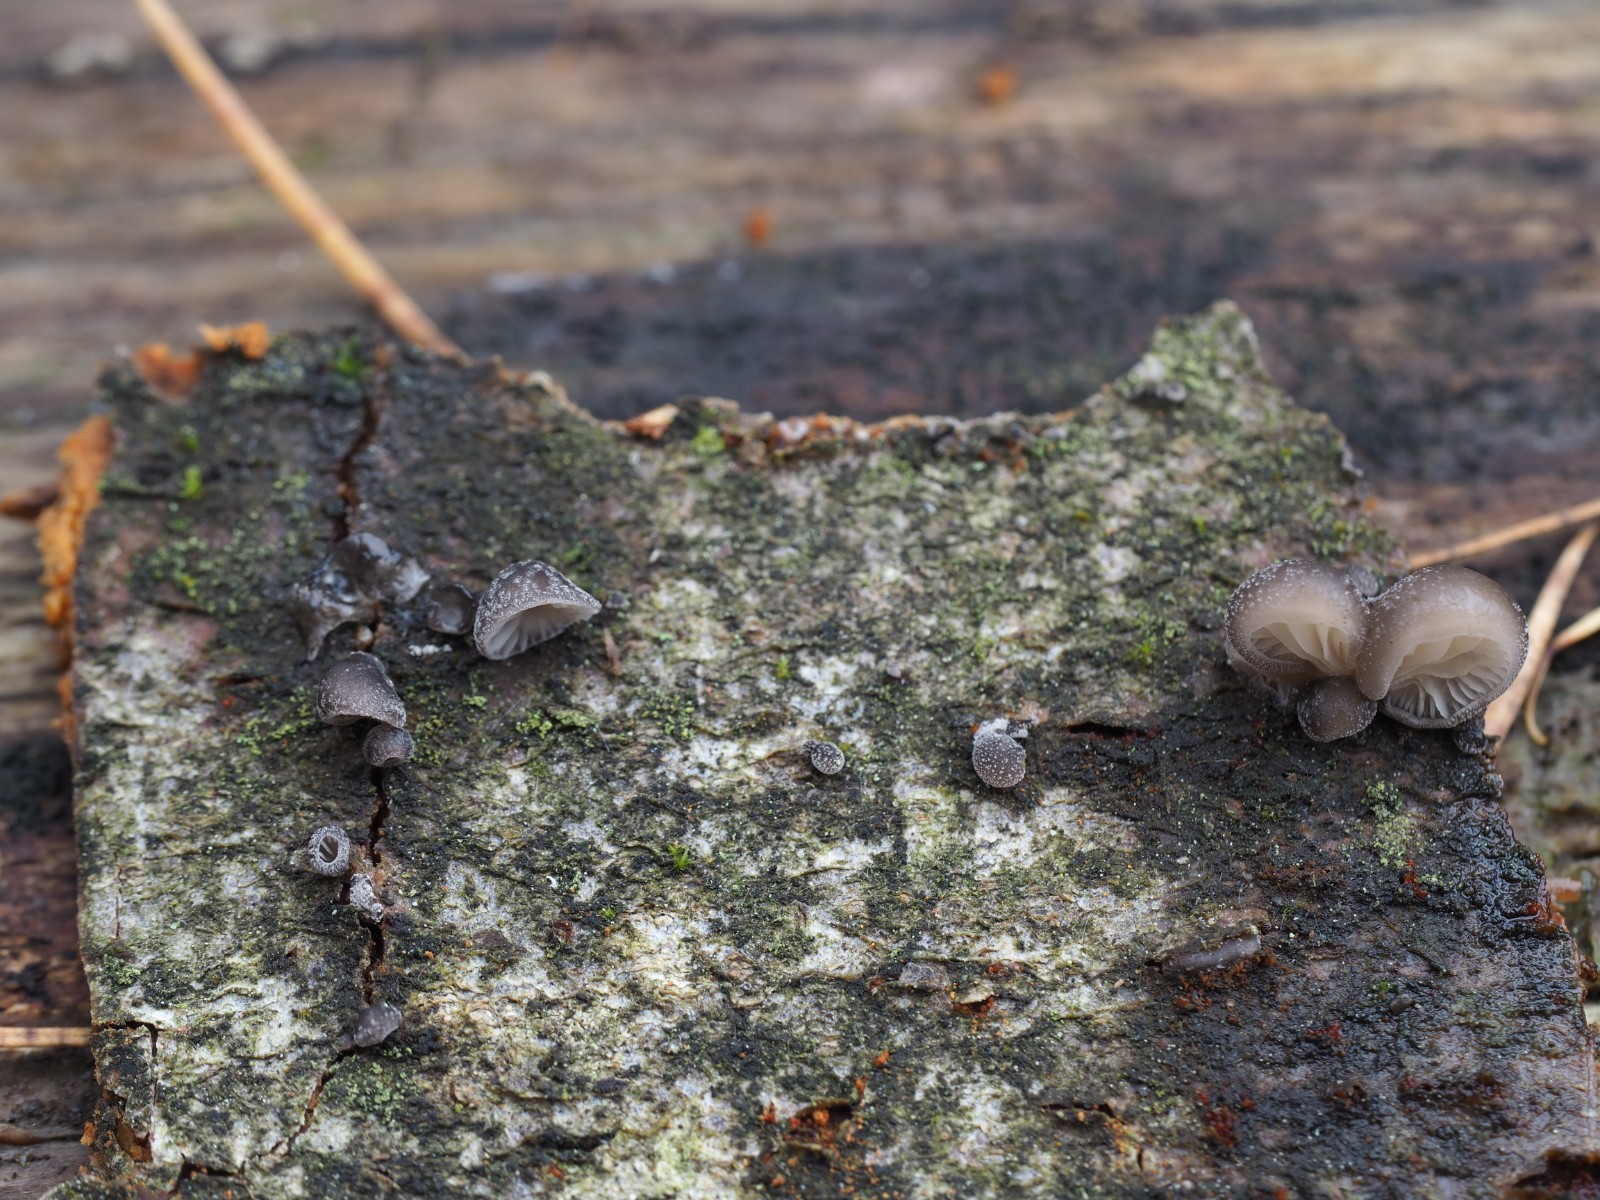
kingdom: Fungi
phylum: Basidiomycota
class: Agaricomycetes
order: Agaricales
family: Pleurotaceae
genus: Hohenbuehelia
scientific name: Hohenbuehelia fluxilis
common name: pile-filthat
